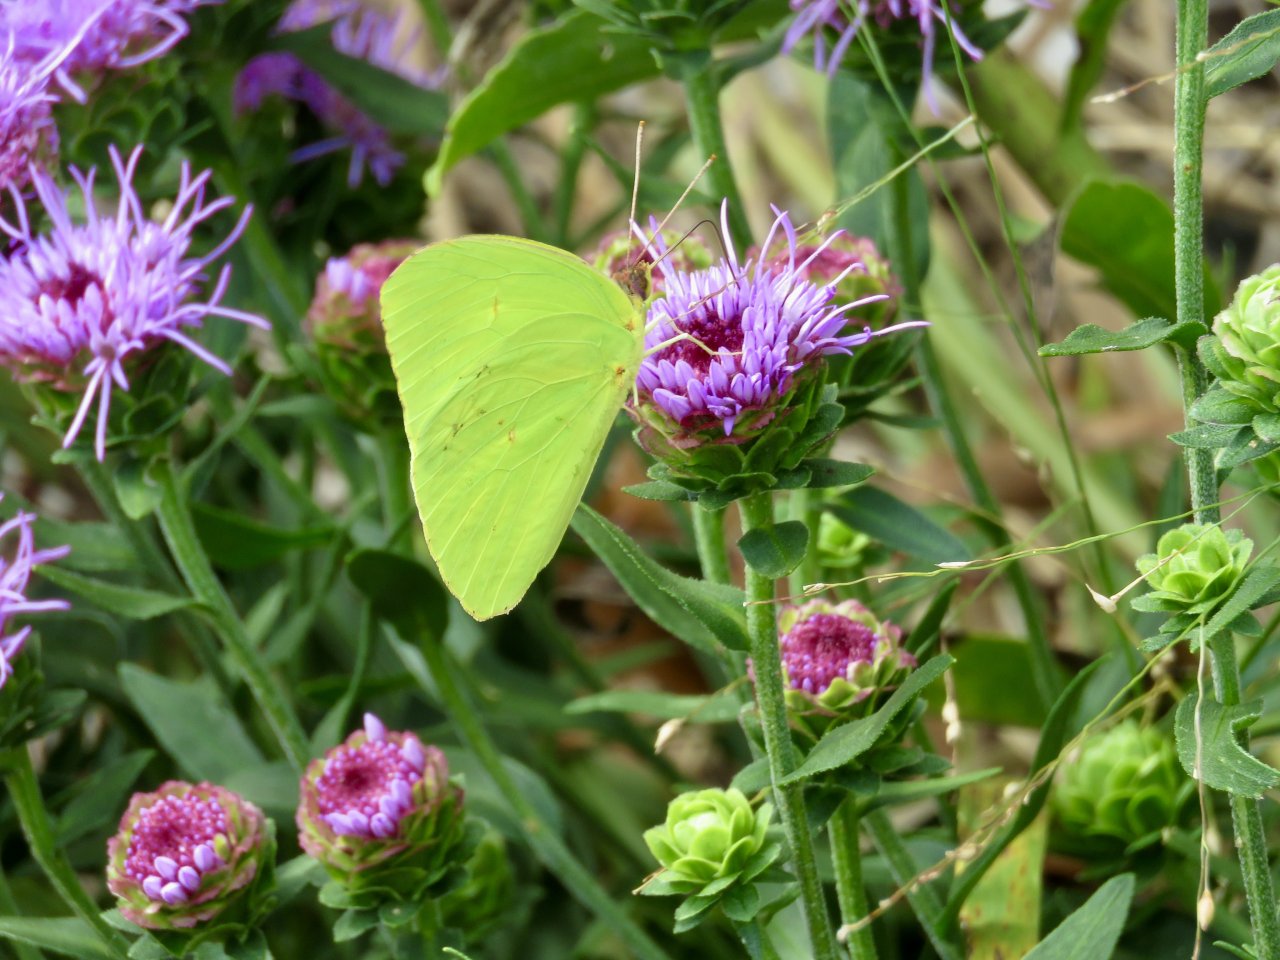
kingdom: Animalia
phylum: Arthropoda
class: Insecta
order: Lepidoptera
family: Pieridae
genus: Phoebis
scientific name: Phoebis sennae
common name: Cloudless Sulphur
